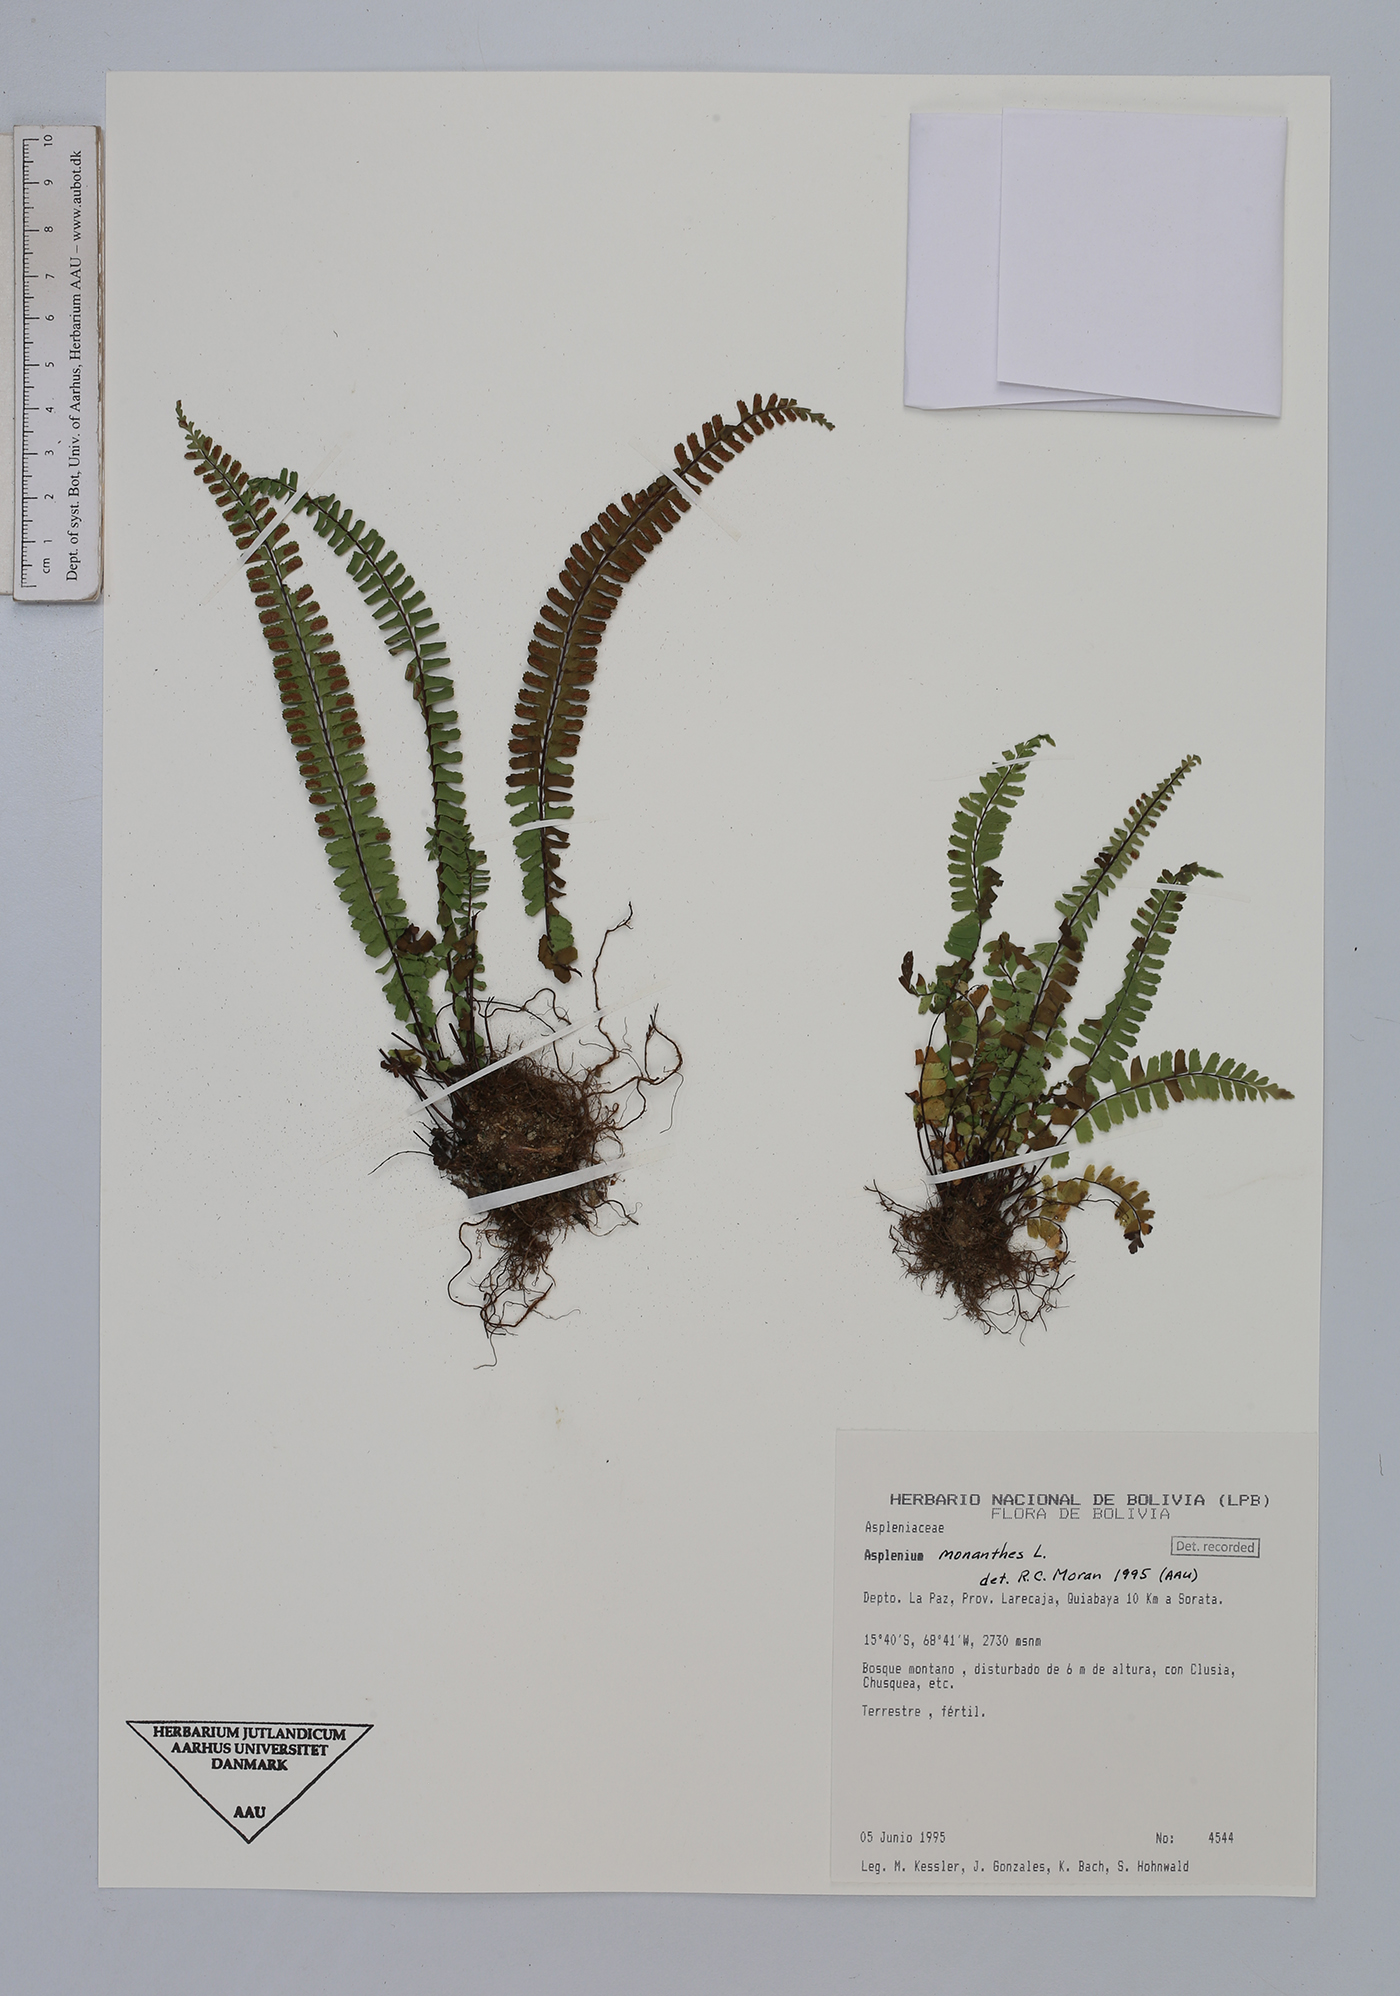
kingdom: Plantae
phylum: Tracheophyta
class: Polypodiopsida
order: Polypodiales
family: Aspleniaceae
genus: Asplenium
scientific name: Asplenium monanthes
